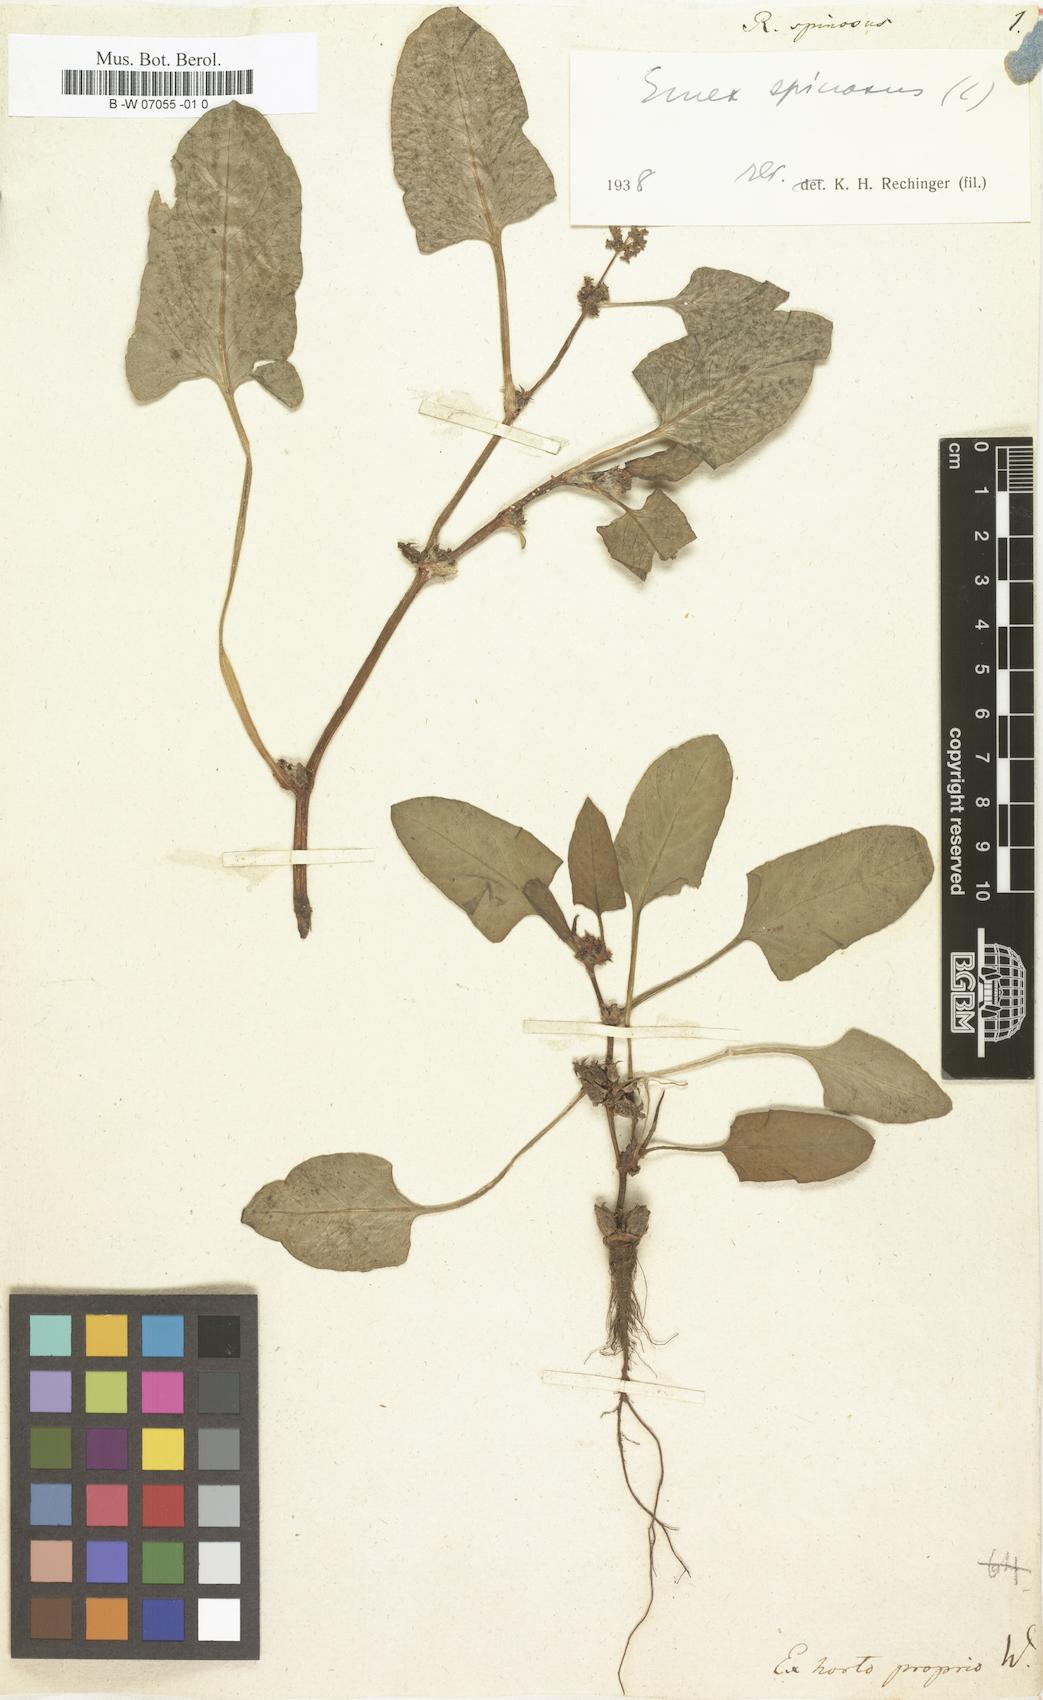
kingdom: Plantae
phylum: Tracheophyta
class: Magnoliopsida
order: Caryophyllales
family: Polygonaceae
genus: Rumex
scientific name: Rumex spinosus
